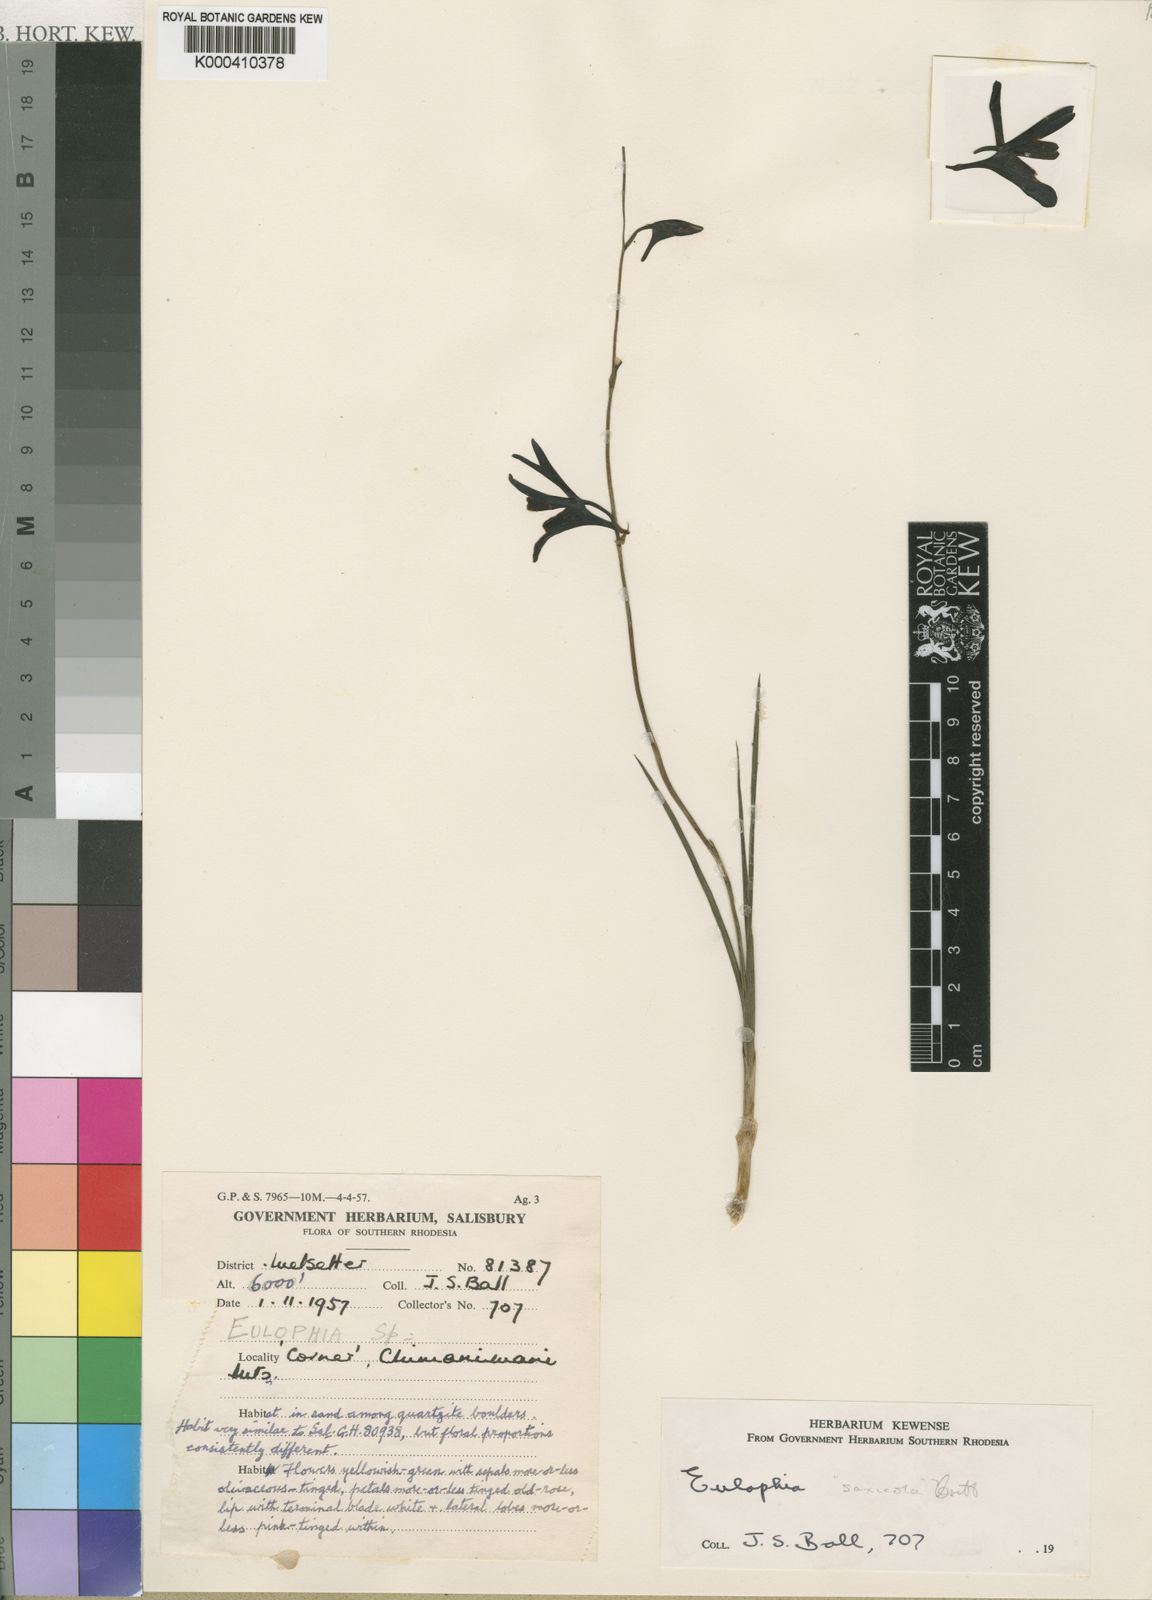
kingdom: Plantae
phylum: Tracheophyta
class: Liliopsida
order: Asparagales
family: Orchidaceae
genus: Eulophia
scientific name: Eulophia saxicola
